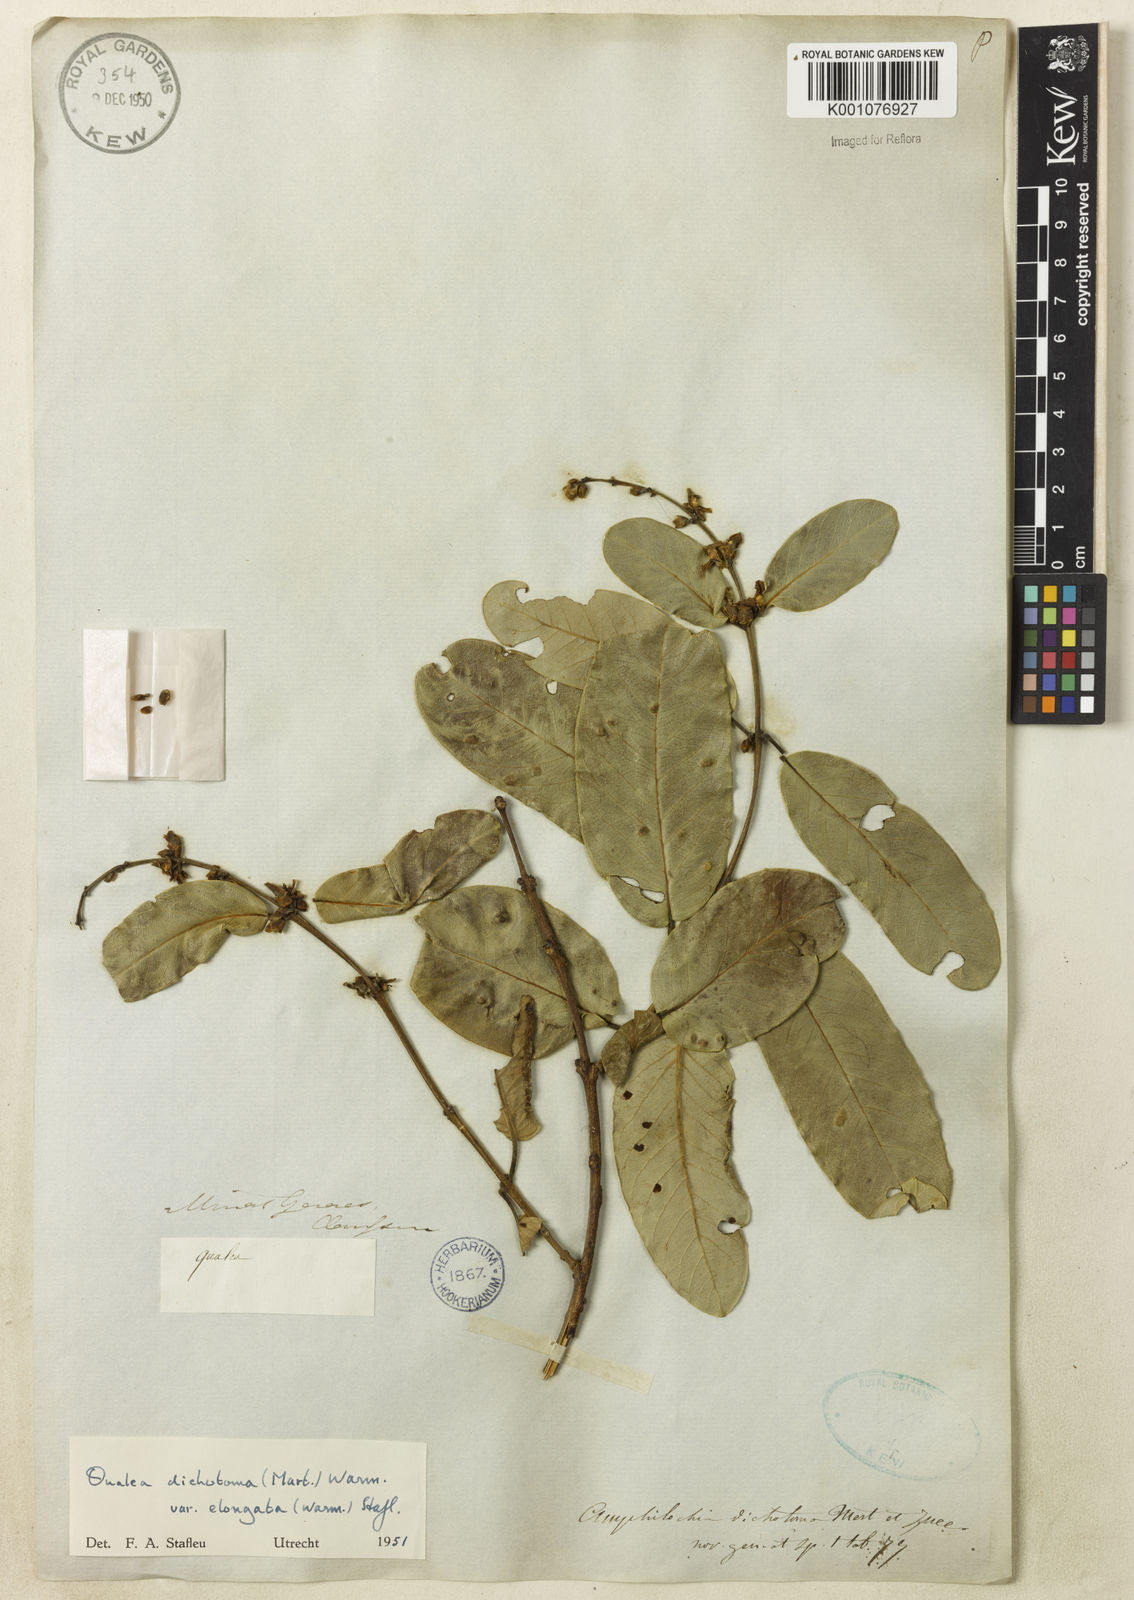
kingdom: Plantae
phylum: Tracheophyta
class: Magnoliopsida
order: Myrtales
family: Vochysiaceae
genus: Qualea
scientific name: Qualea cordata
